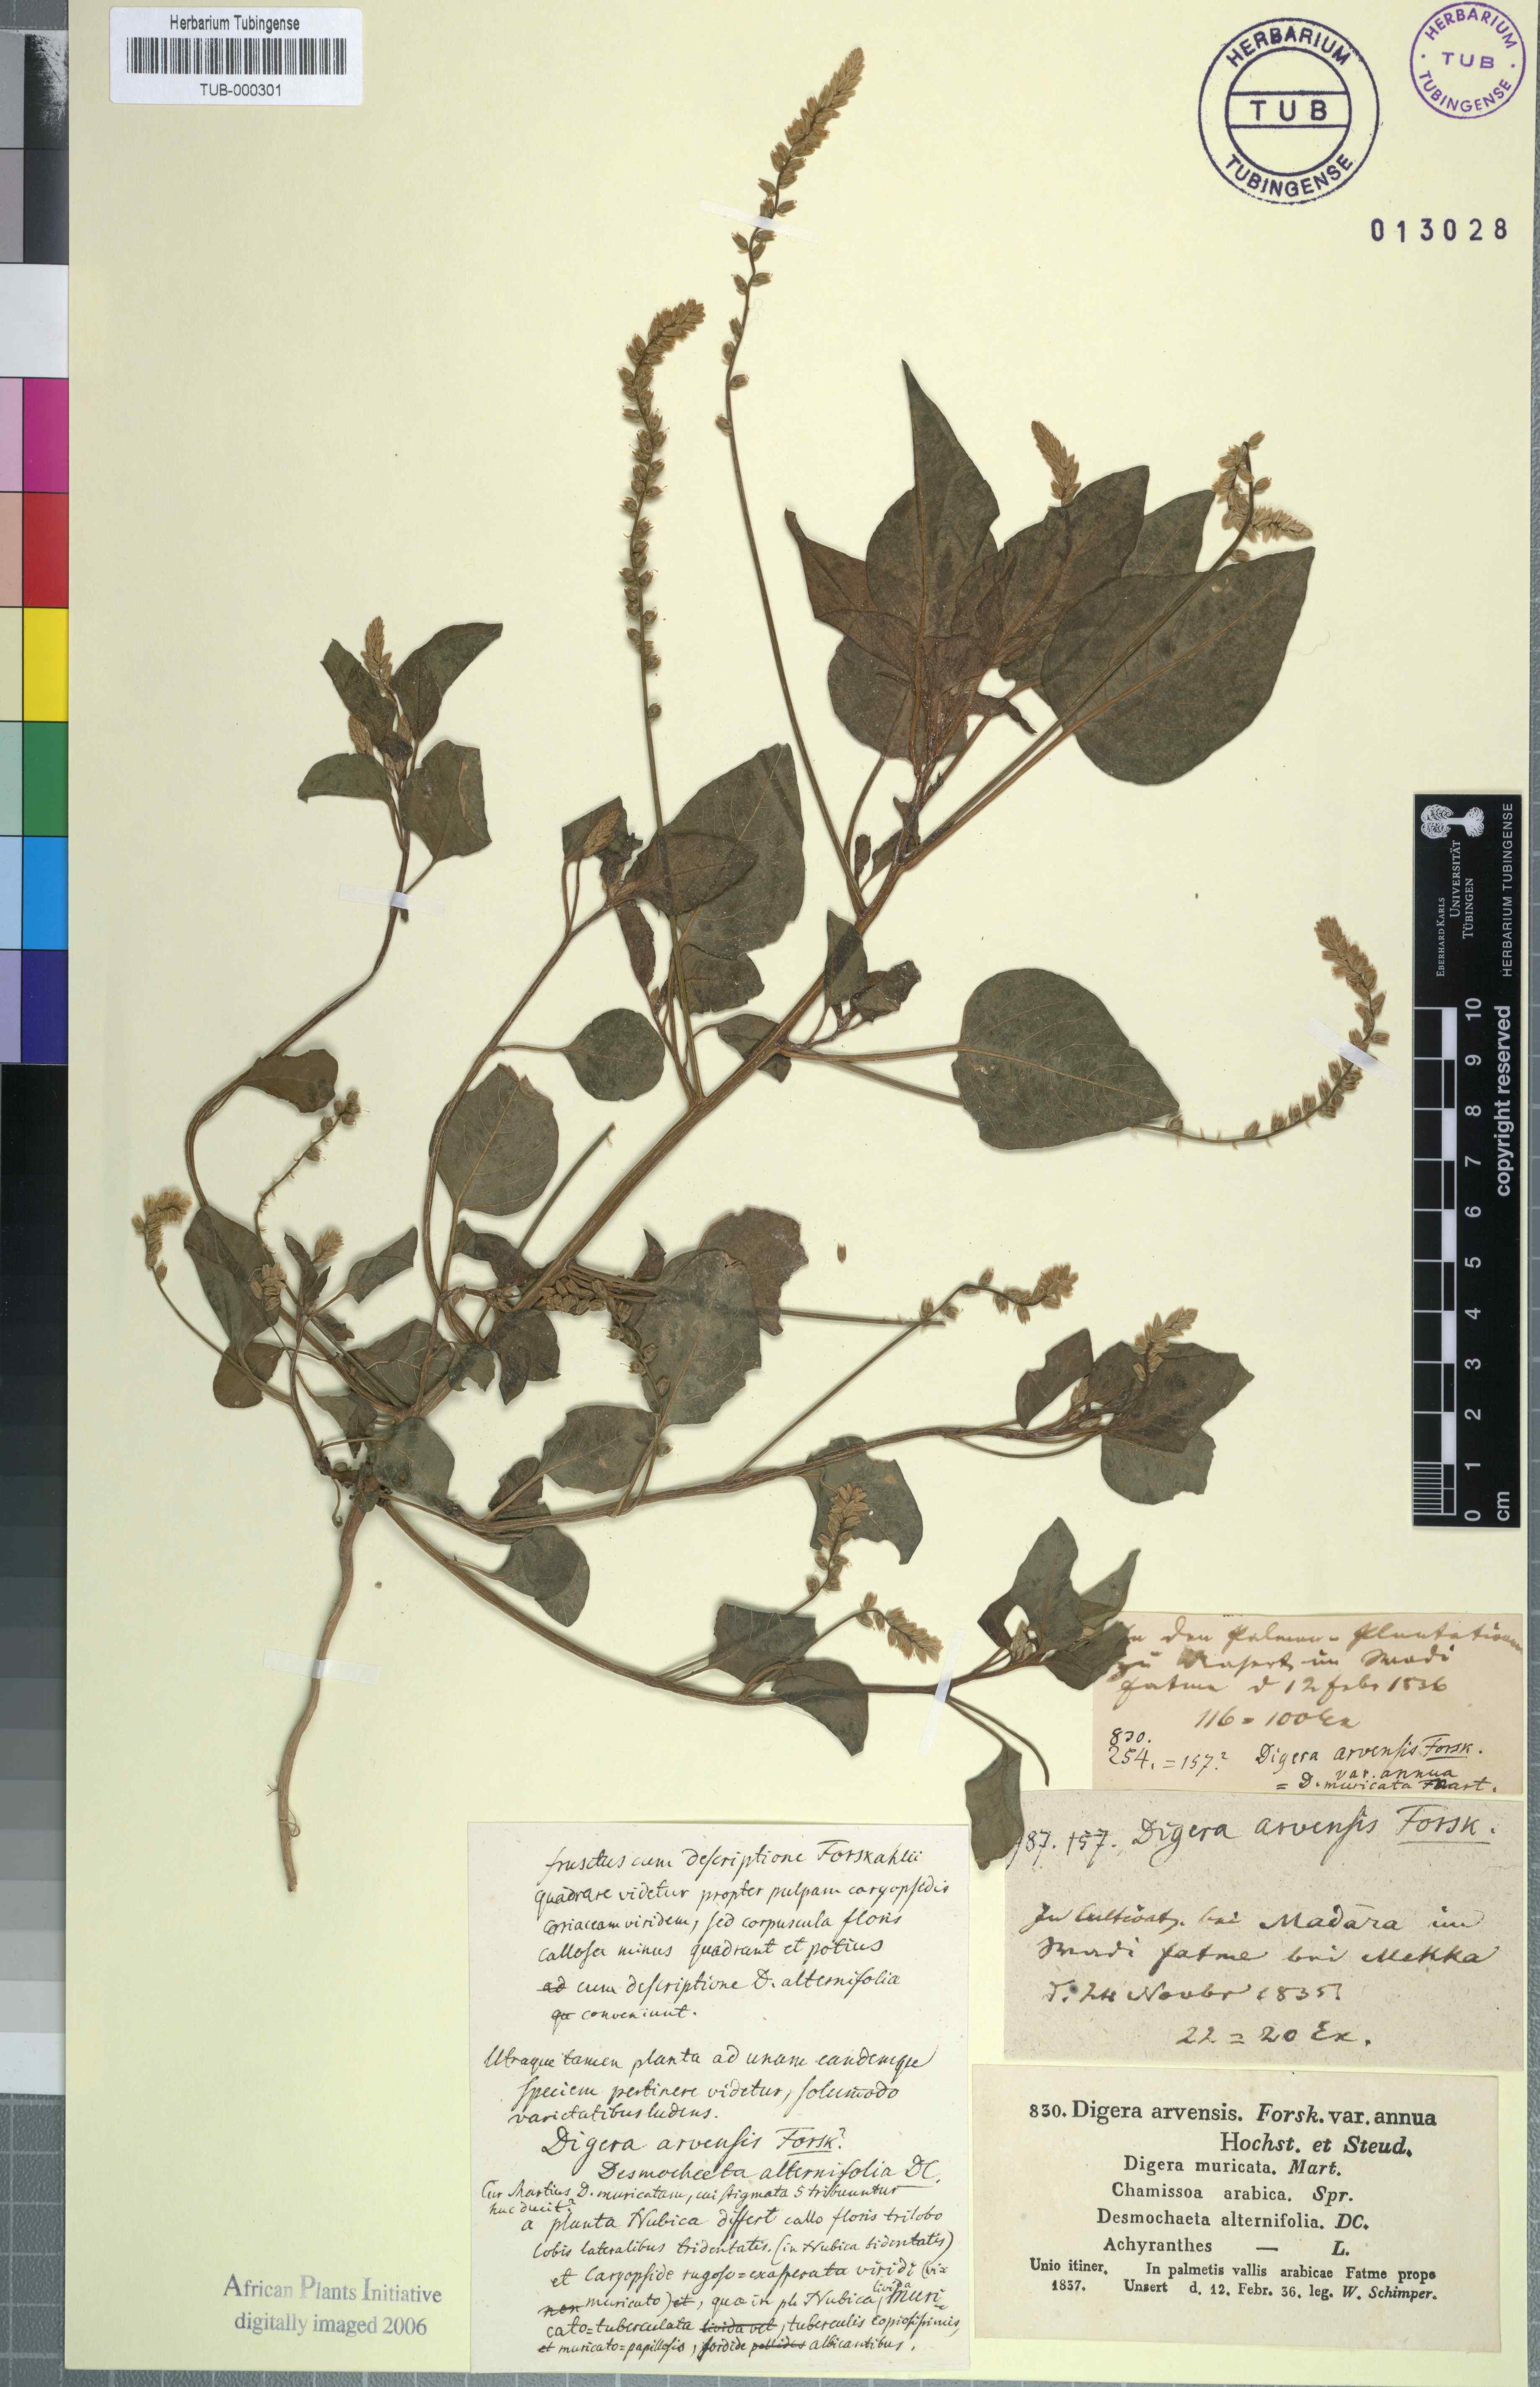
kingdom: Plantae
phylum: Tracheophyta
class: Magnoliopsida
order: Caryophyllales
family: Amaranthaceae
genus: Digera
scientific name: Digera muricata
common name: False amaranth
